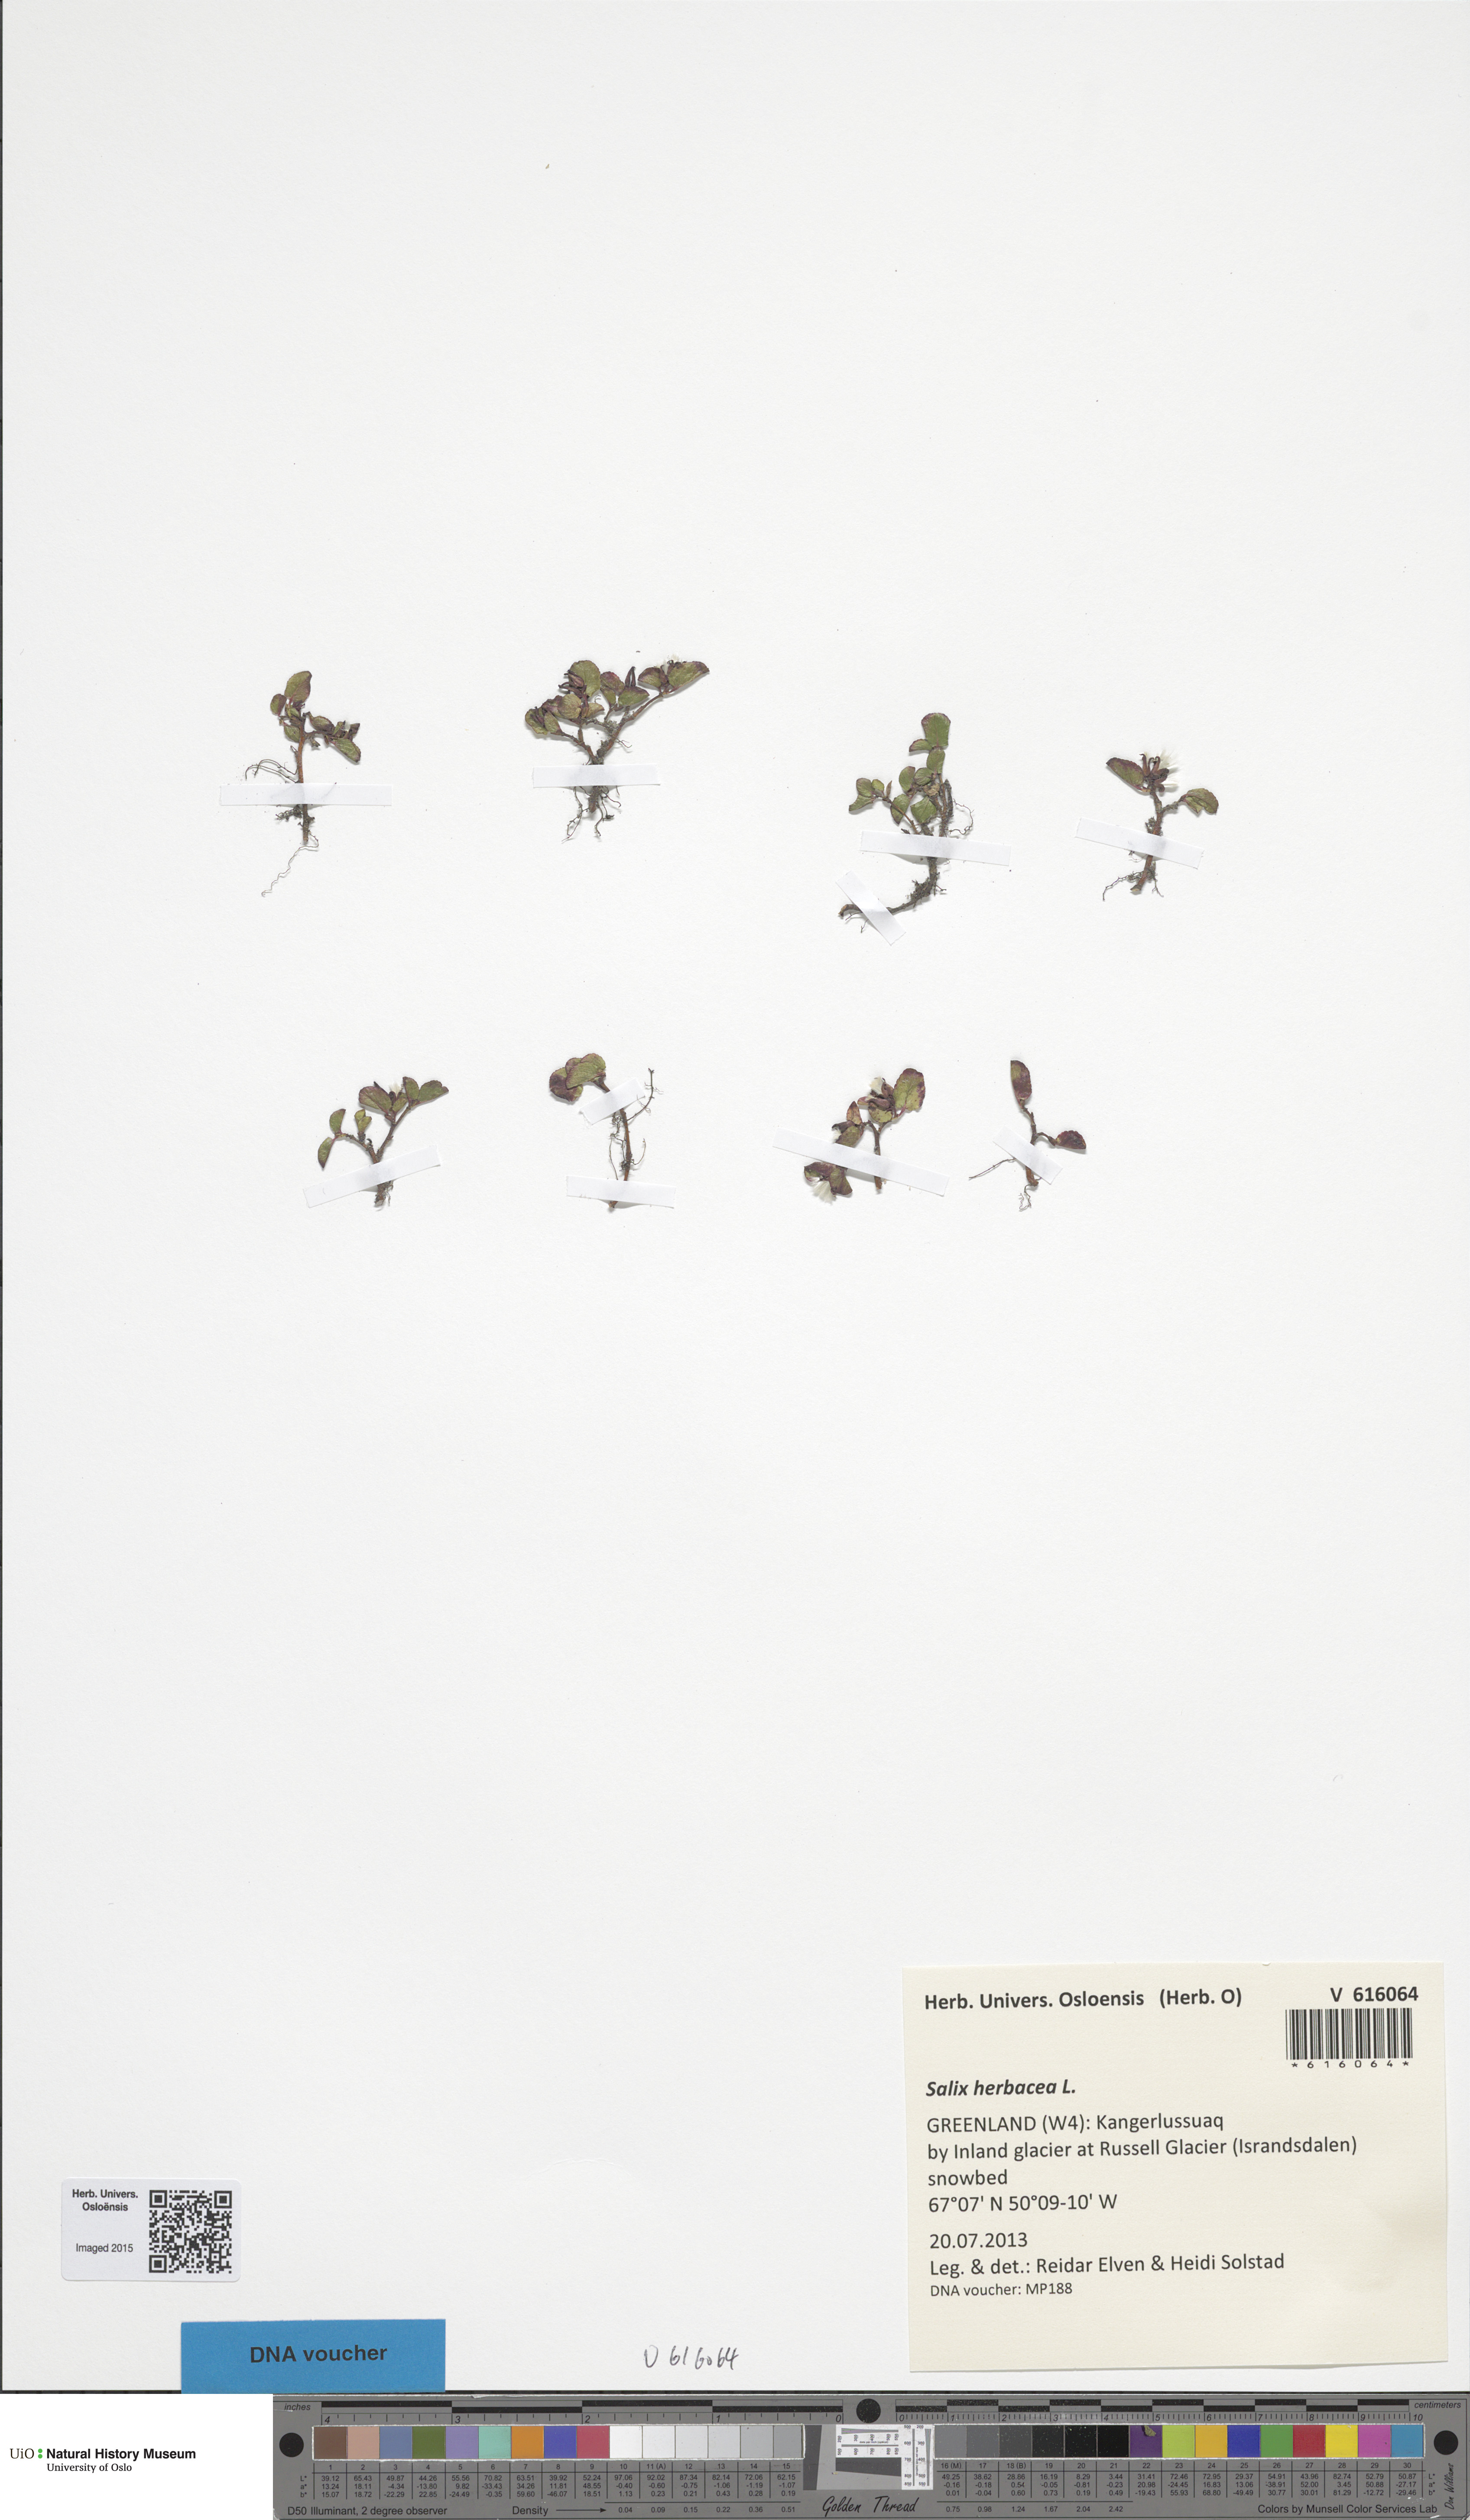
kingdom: Plantae
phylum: Tracheophyta
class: Magnoliopsida
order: Malpighiales
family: Salicaceae
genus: Salix
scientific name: Salix herbacea
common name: Dwarf willow
